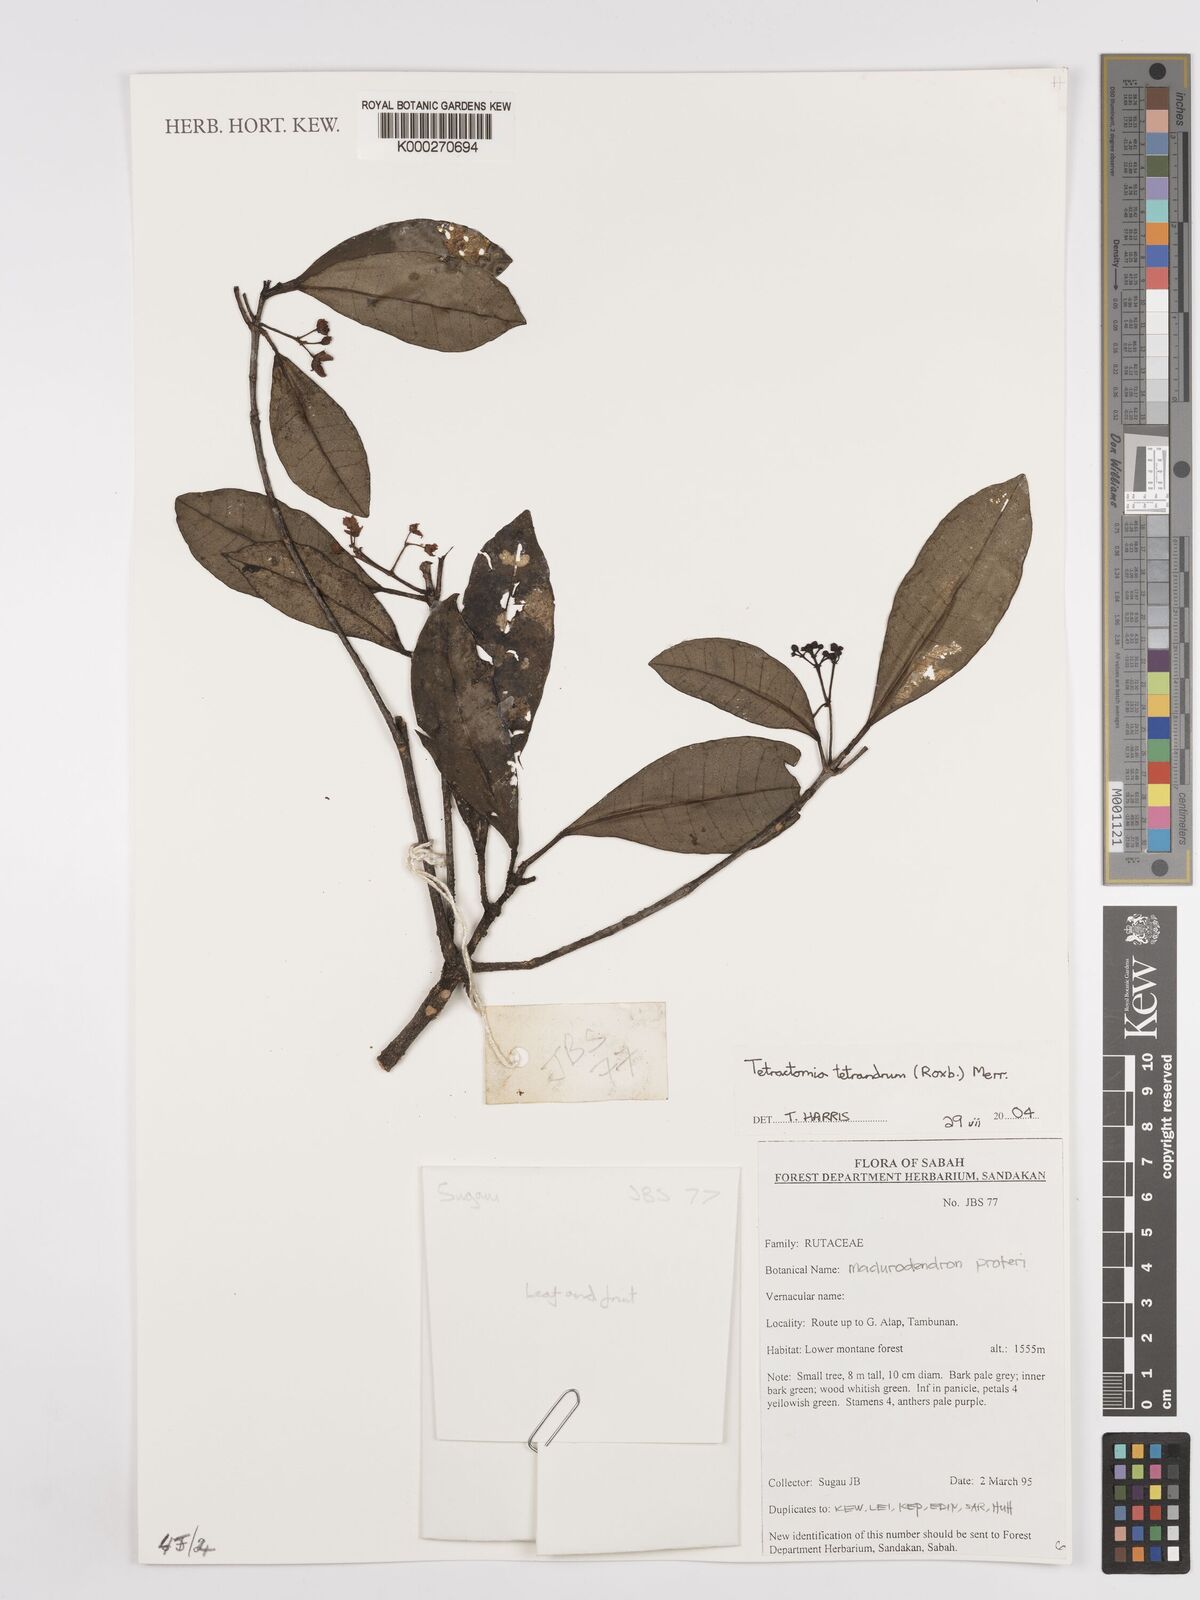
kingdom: Plantae
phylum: Tracheophyta
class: Magnoliopsida
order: Sapindales
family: Rutaceae
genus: Tetractomia
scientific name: Tetractomia tetrandra
